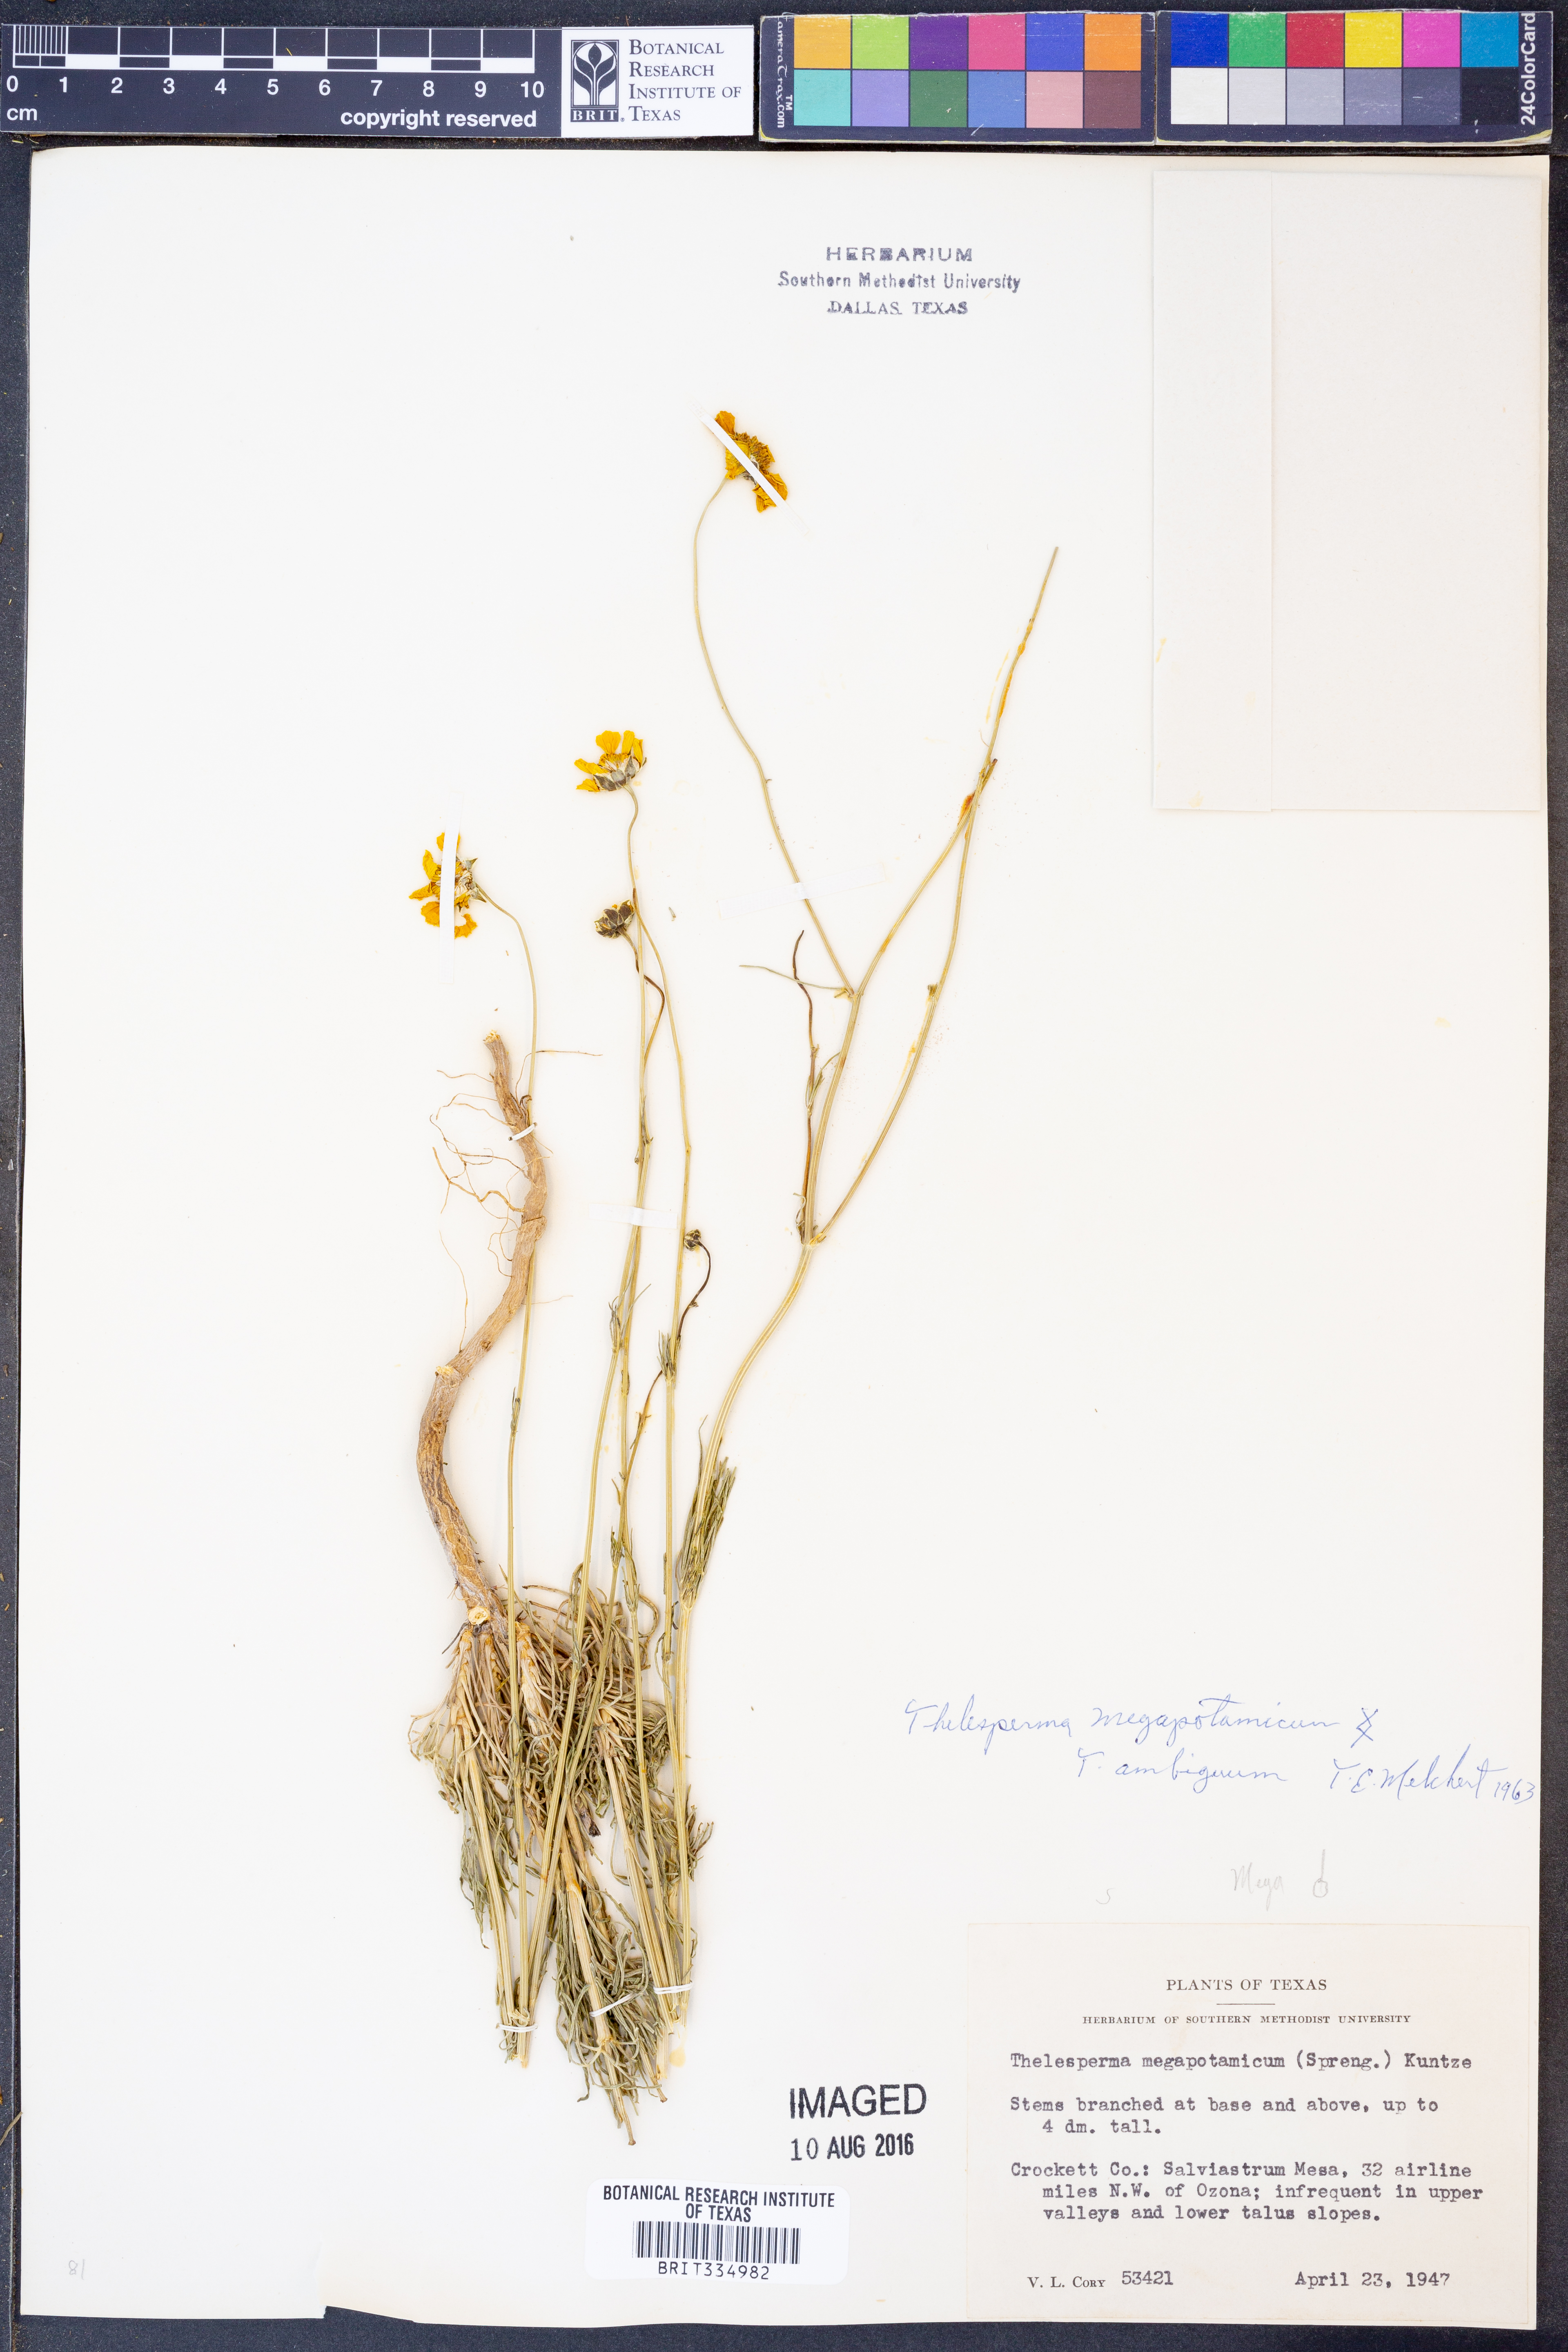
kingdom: Plantae
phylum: Tracheophyta
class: Magnoliopsida
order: Asterales
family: Asteraceae
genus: Thelesperma
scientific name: Thelesperma ambiguum
